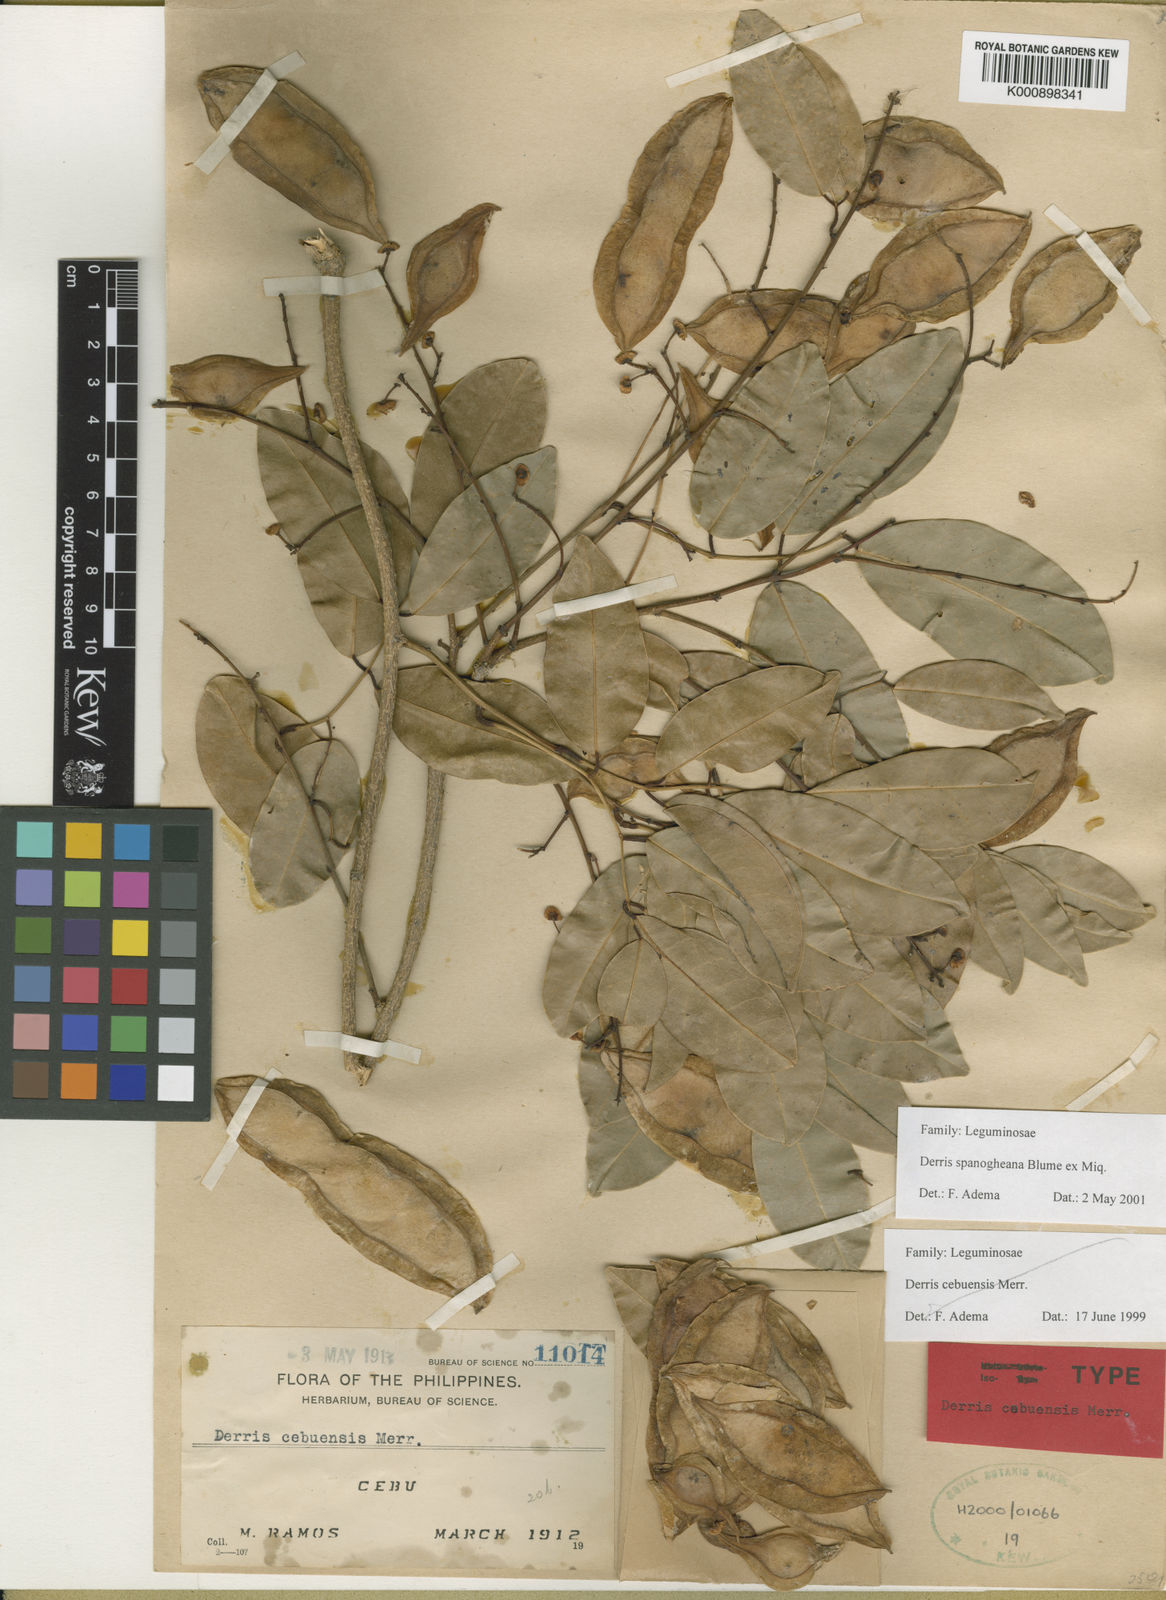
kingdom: Plantae
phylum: Tracheophyta
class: Magnoliopsida
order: Fabales
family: Fabaceae
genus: Derris
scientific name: Derris spanogheana
